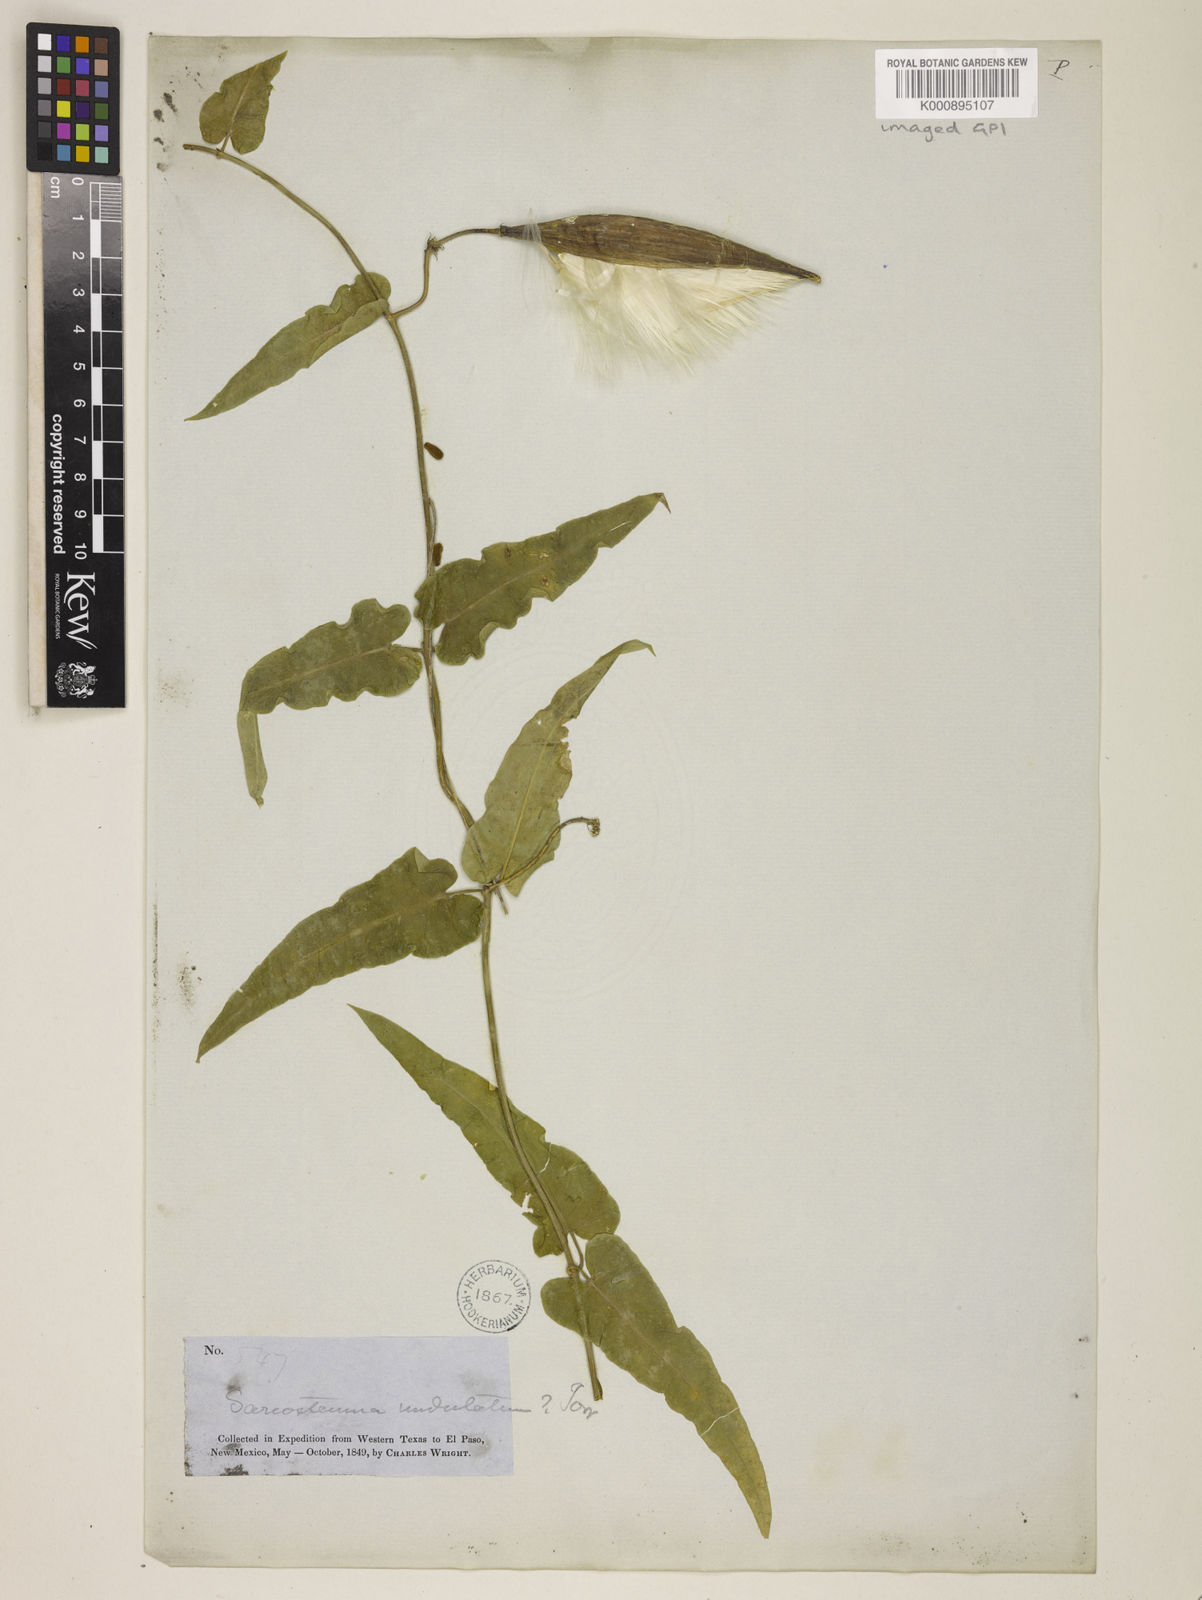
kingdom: Plantae
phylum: Tracheophyta
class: Magnoliopsida
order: Gentianales
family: Apocynaceae
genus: Funastrum
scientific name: Funastrum crispum
